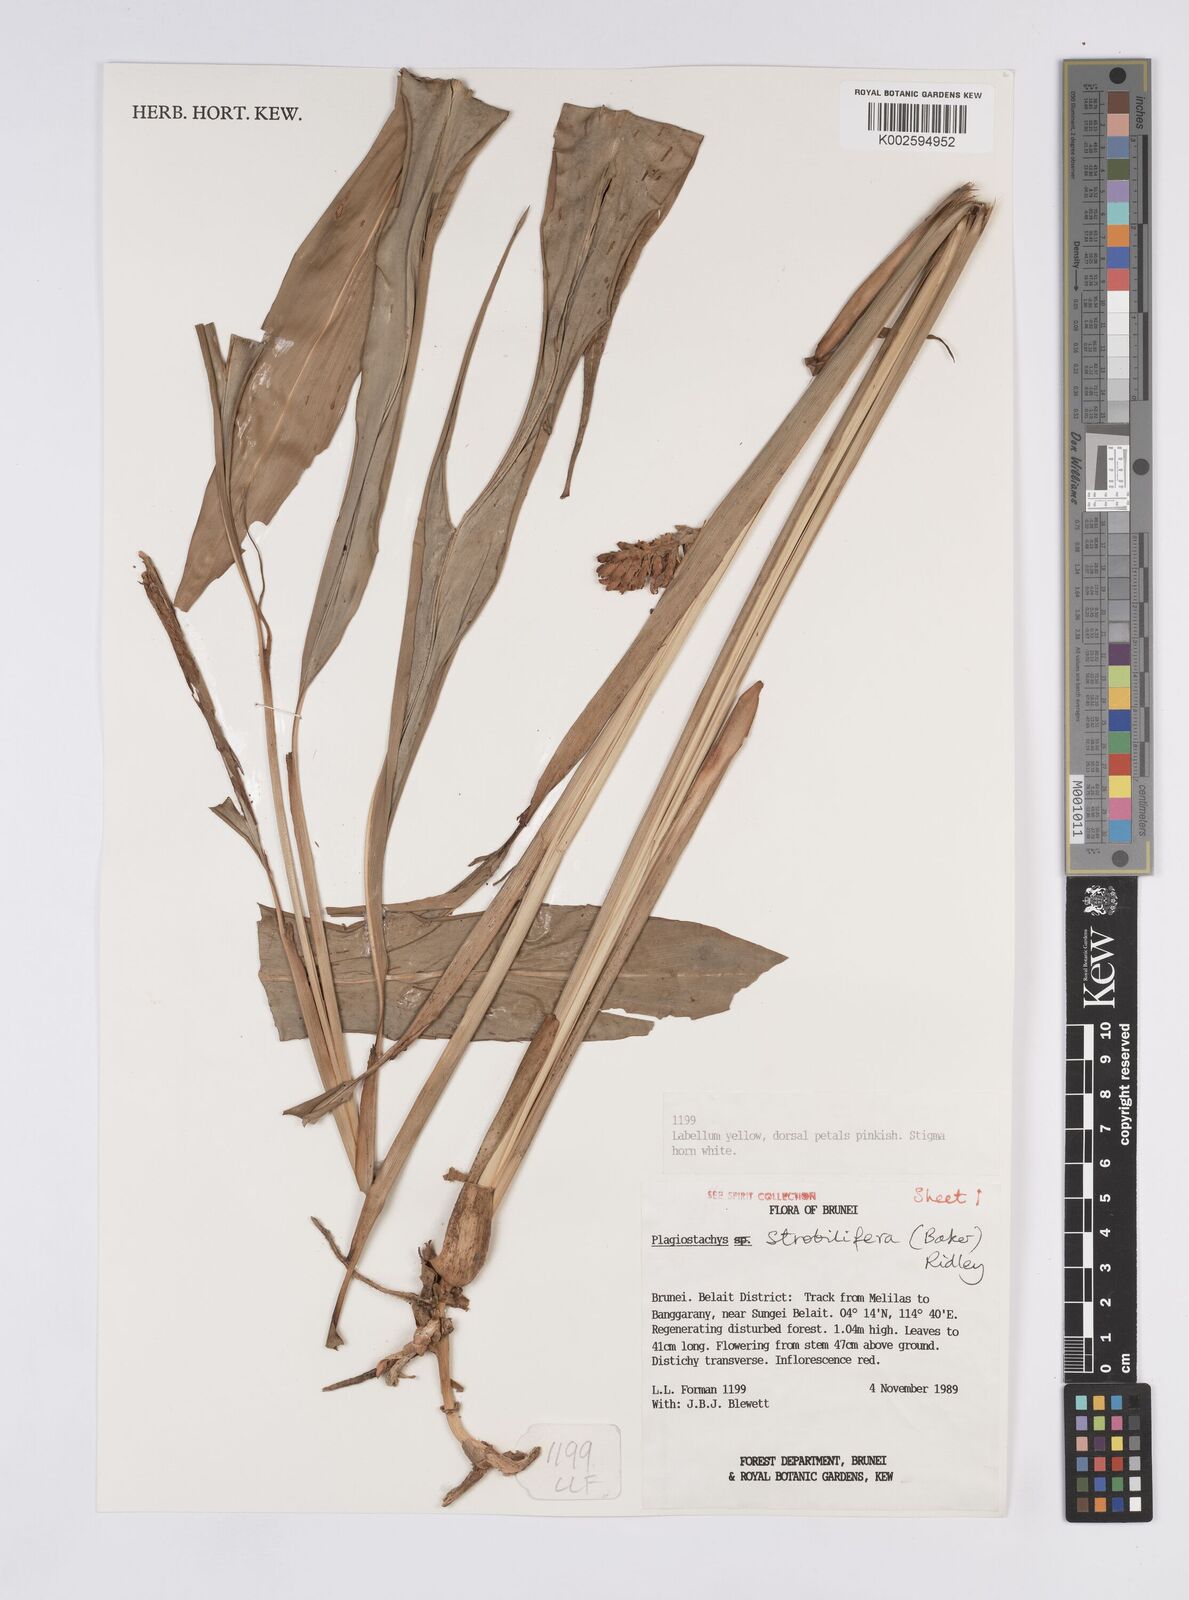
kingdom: Plantae
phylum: Tracheophyta
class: Liliopsida
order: Zingiberales
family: Zingiberaceae
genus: Plagiostachys
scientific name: Plagiostachys strobilifera
